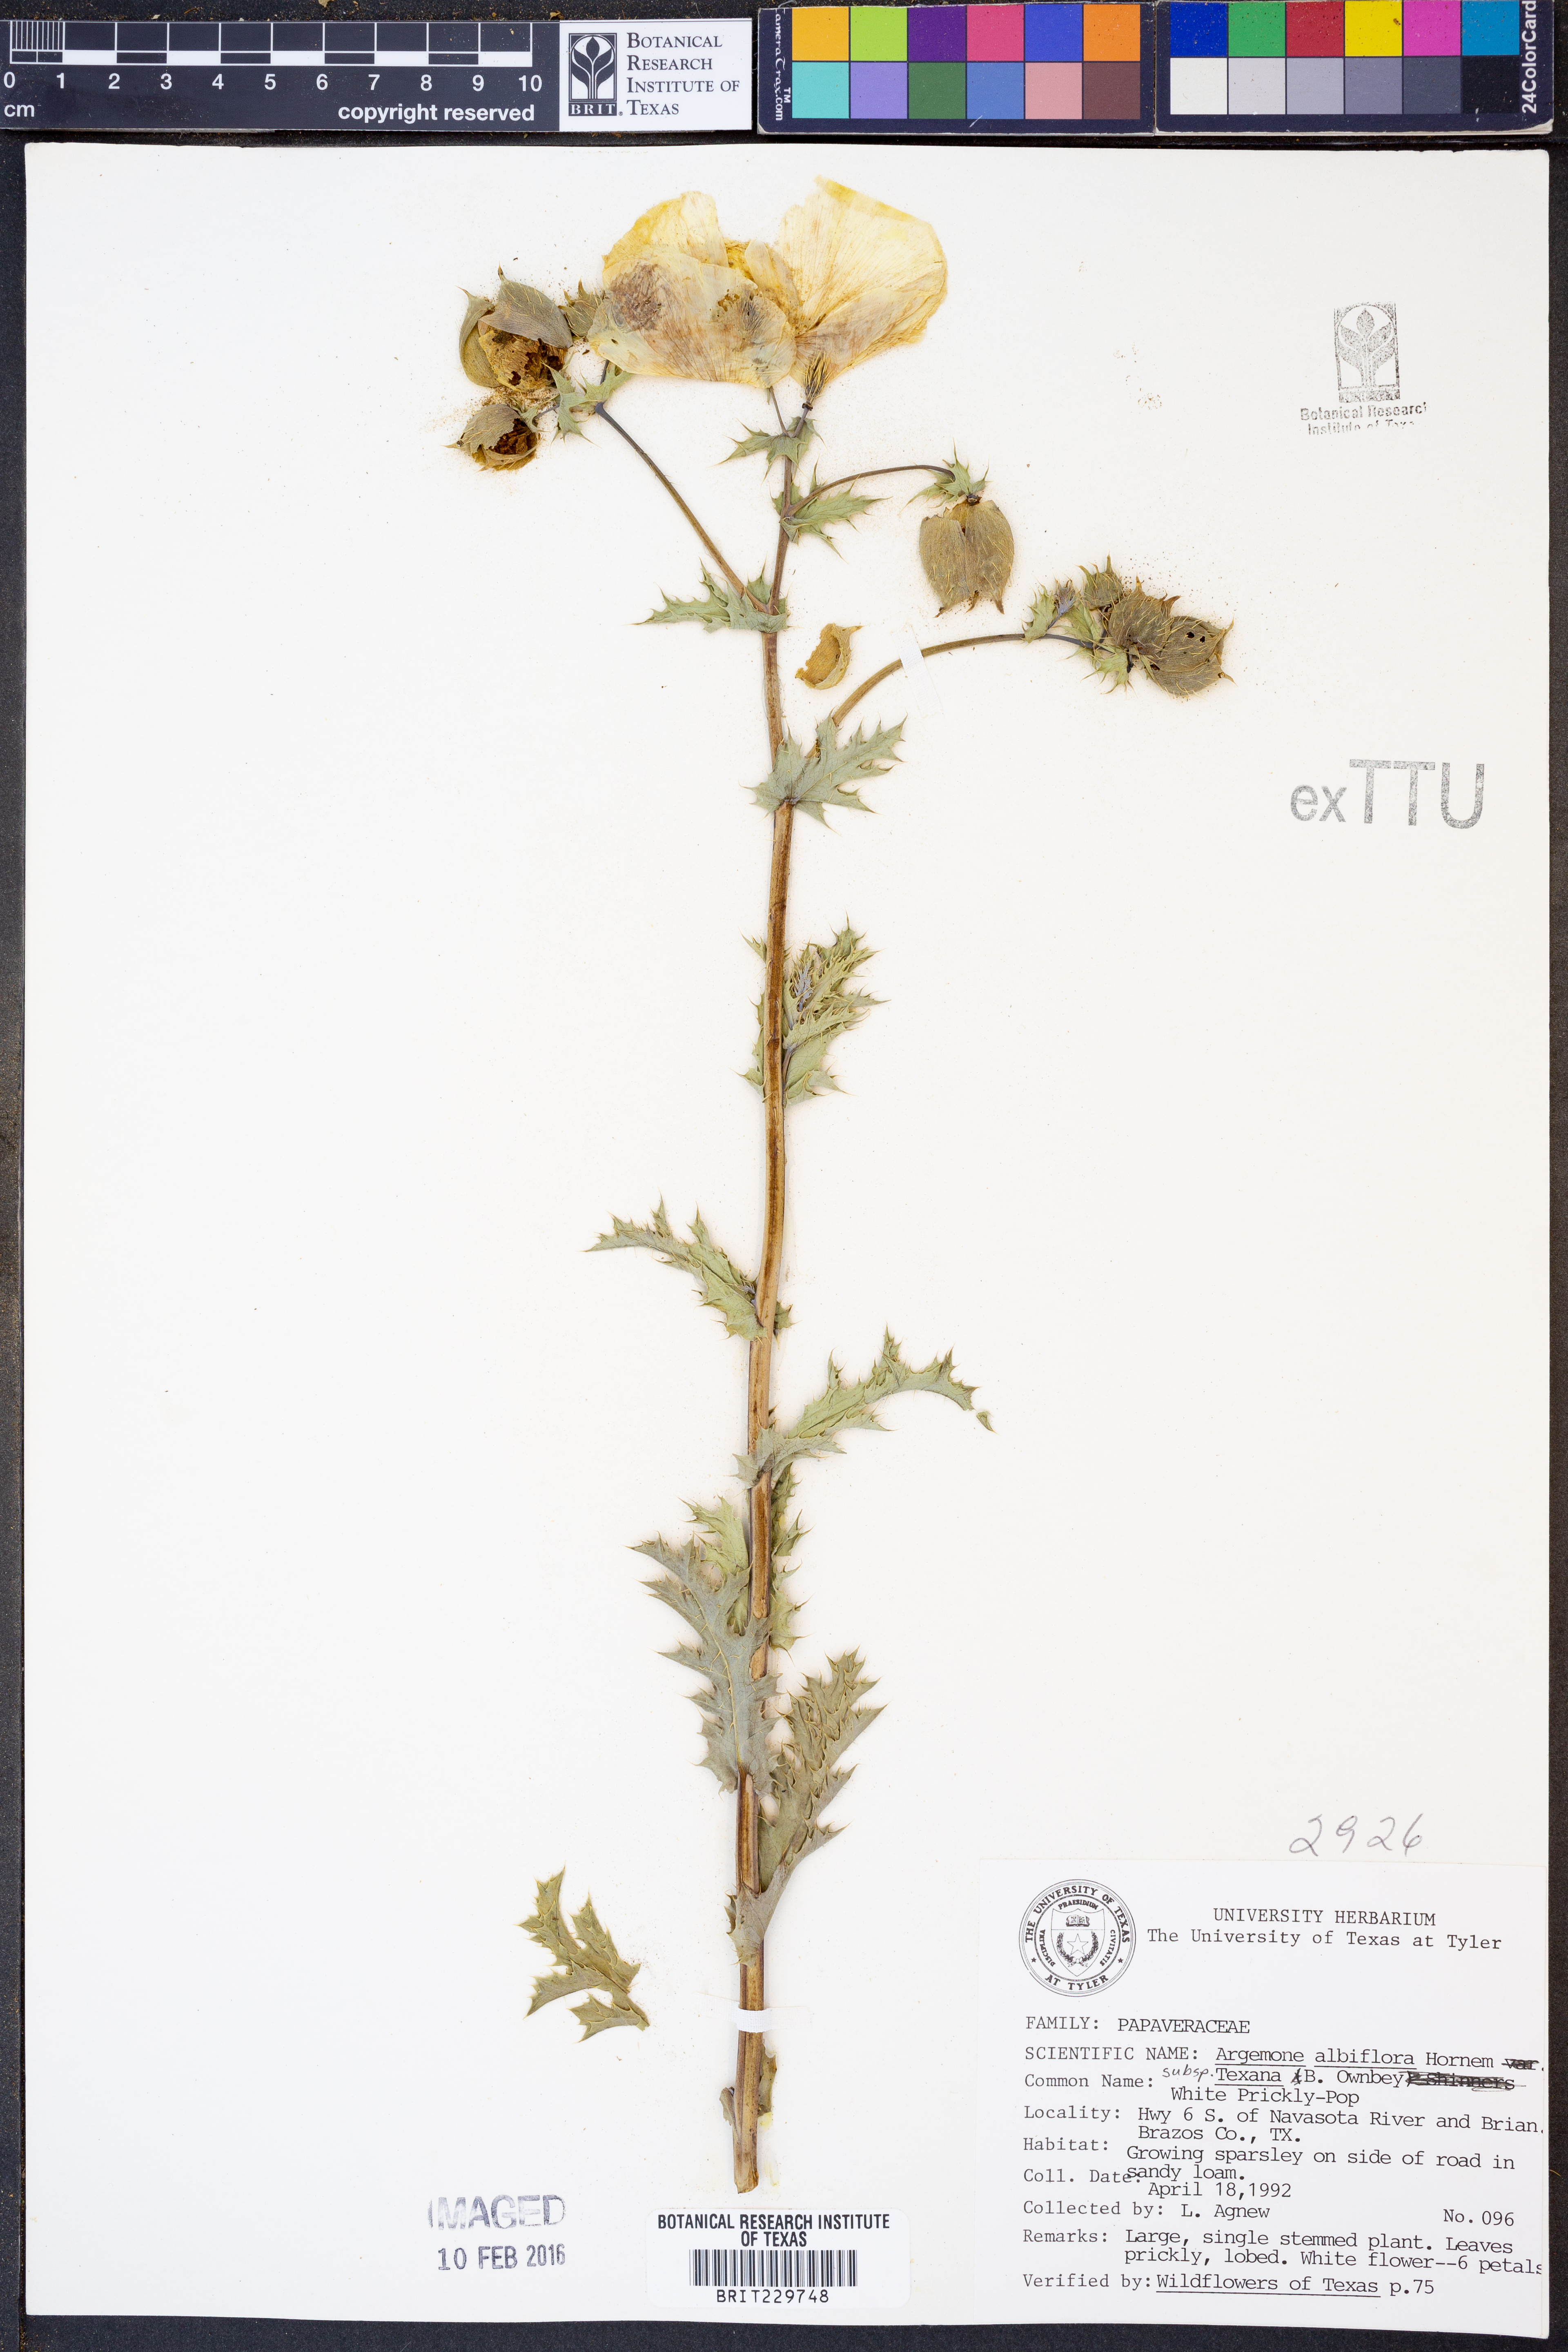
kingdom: Plantae
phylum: Tracheophyta
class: Magnoliopsida
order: Ranunculales
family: Papaveraceae
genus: Argemone
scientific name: Argemone albiflora
